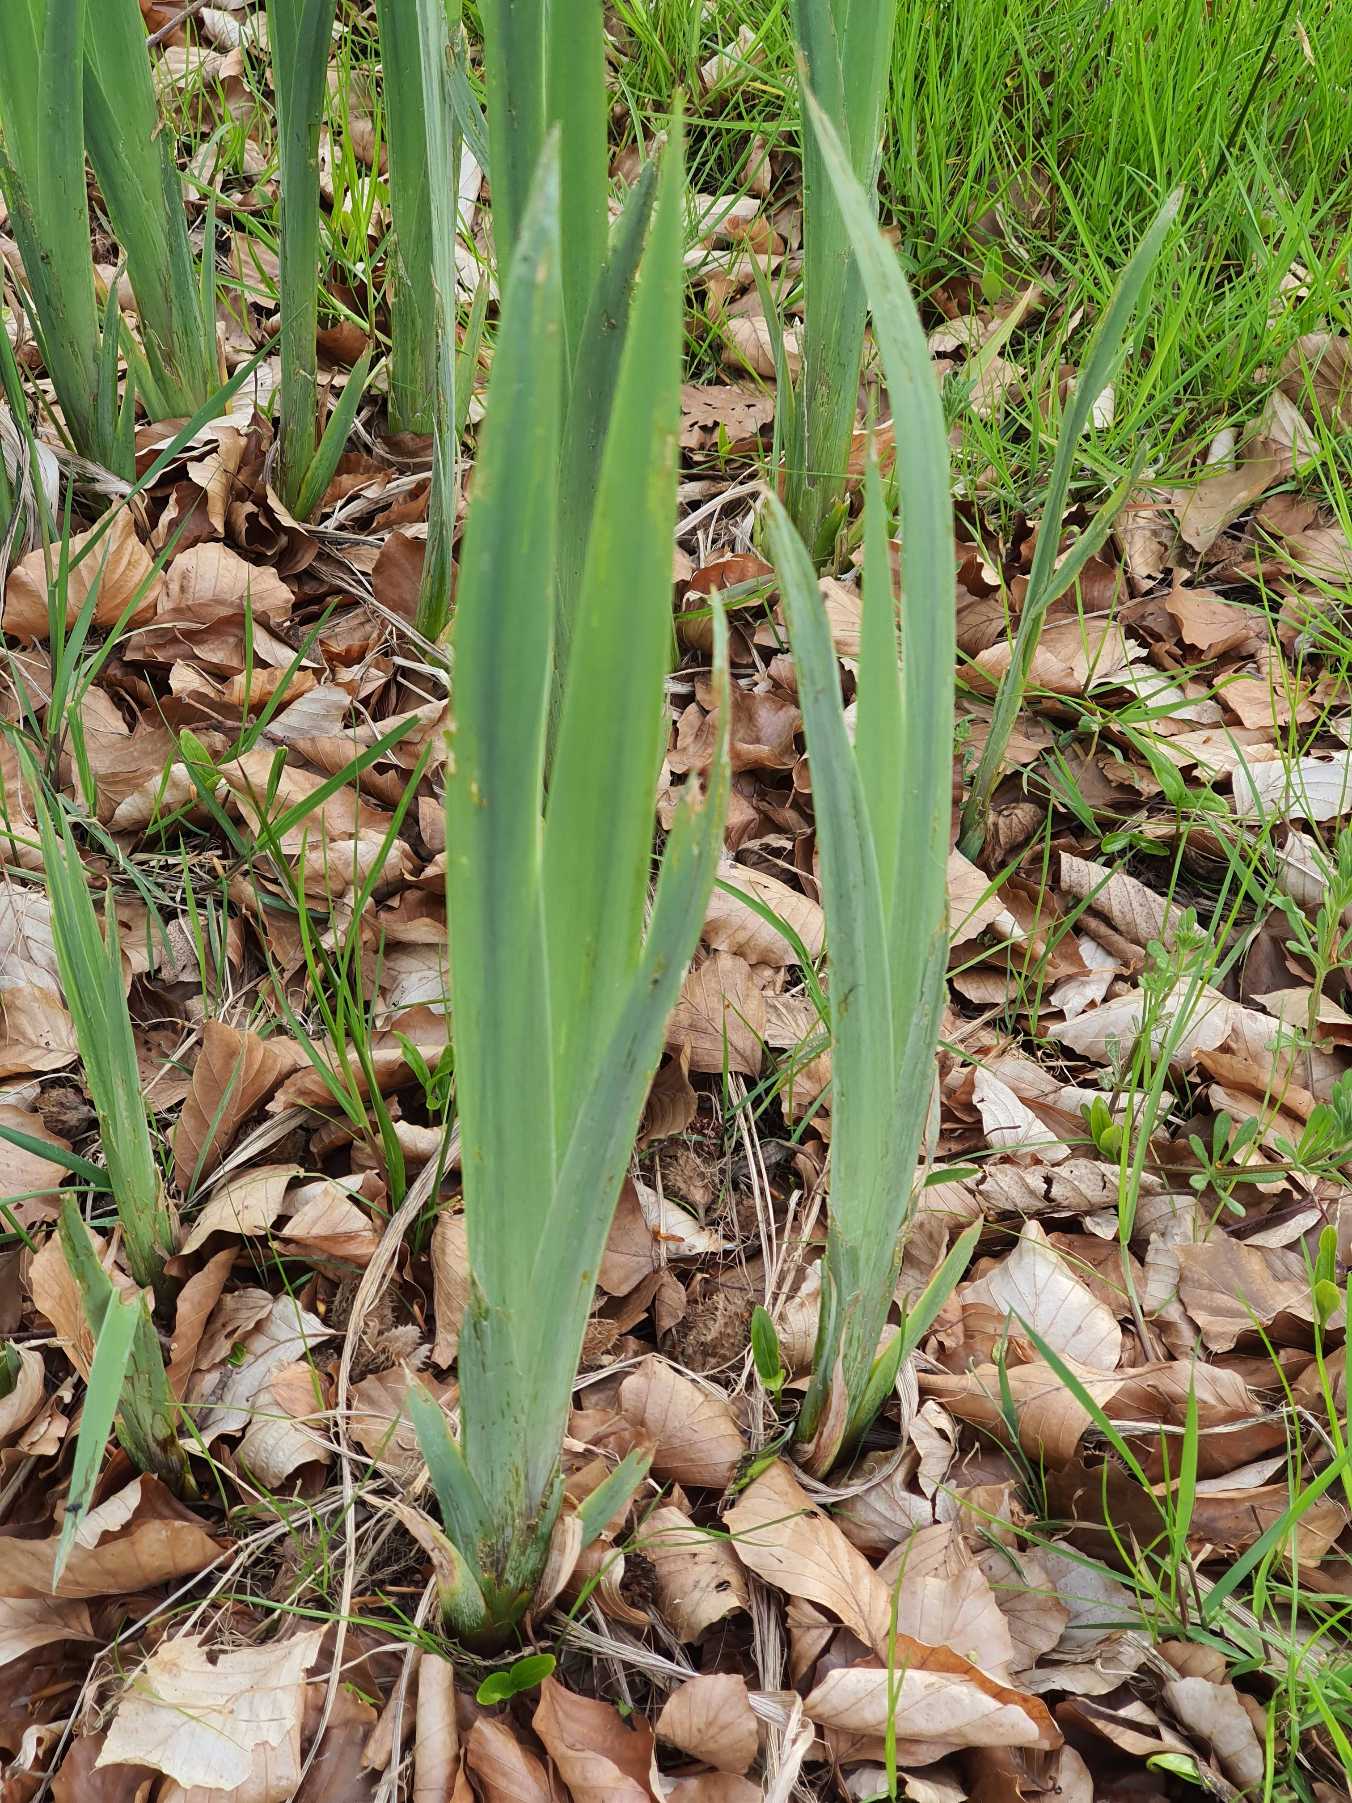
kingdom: Plantae
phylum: Tracheophyta
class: Liliopsida
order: Asparagales
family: Iridaceae
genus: Iris
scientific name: Iris pseudacorus
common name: Gul iris
